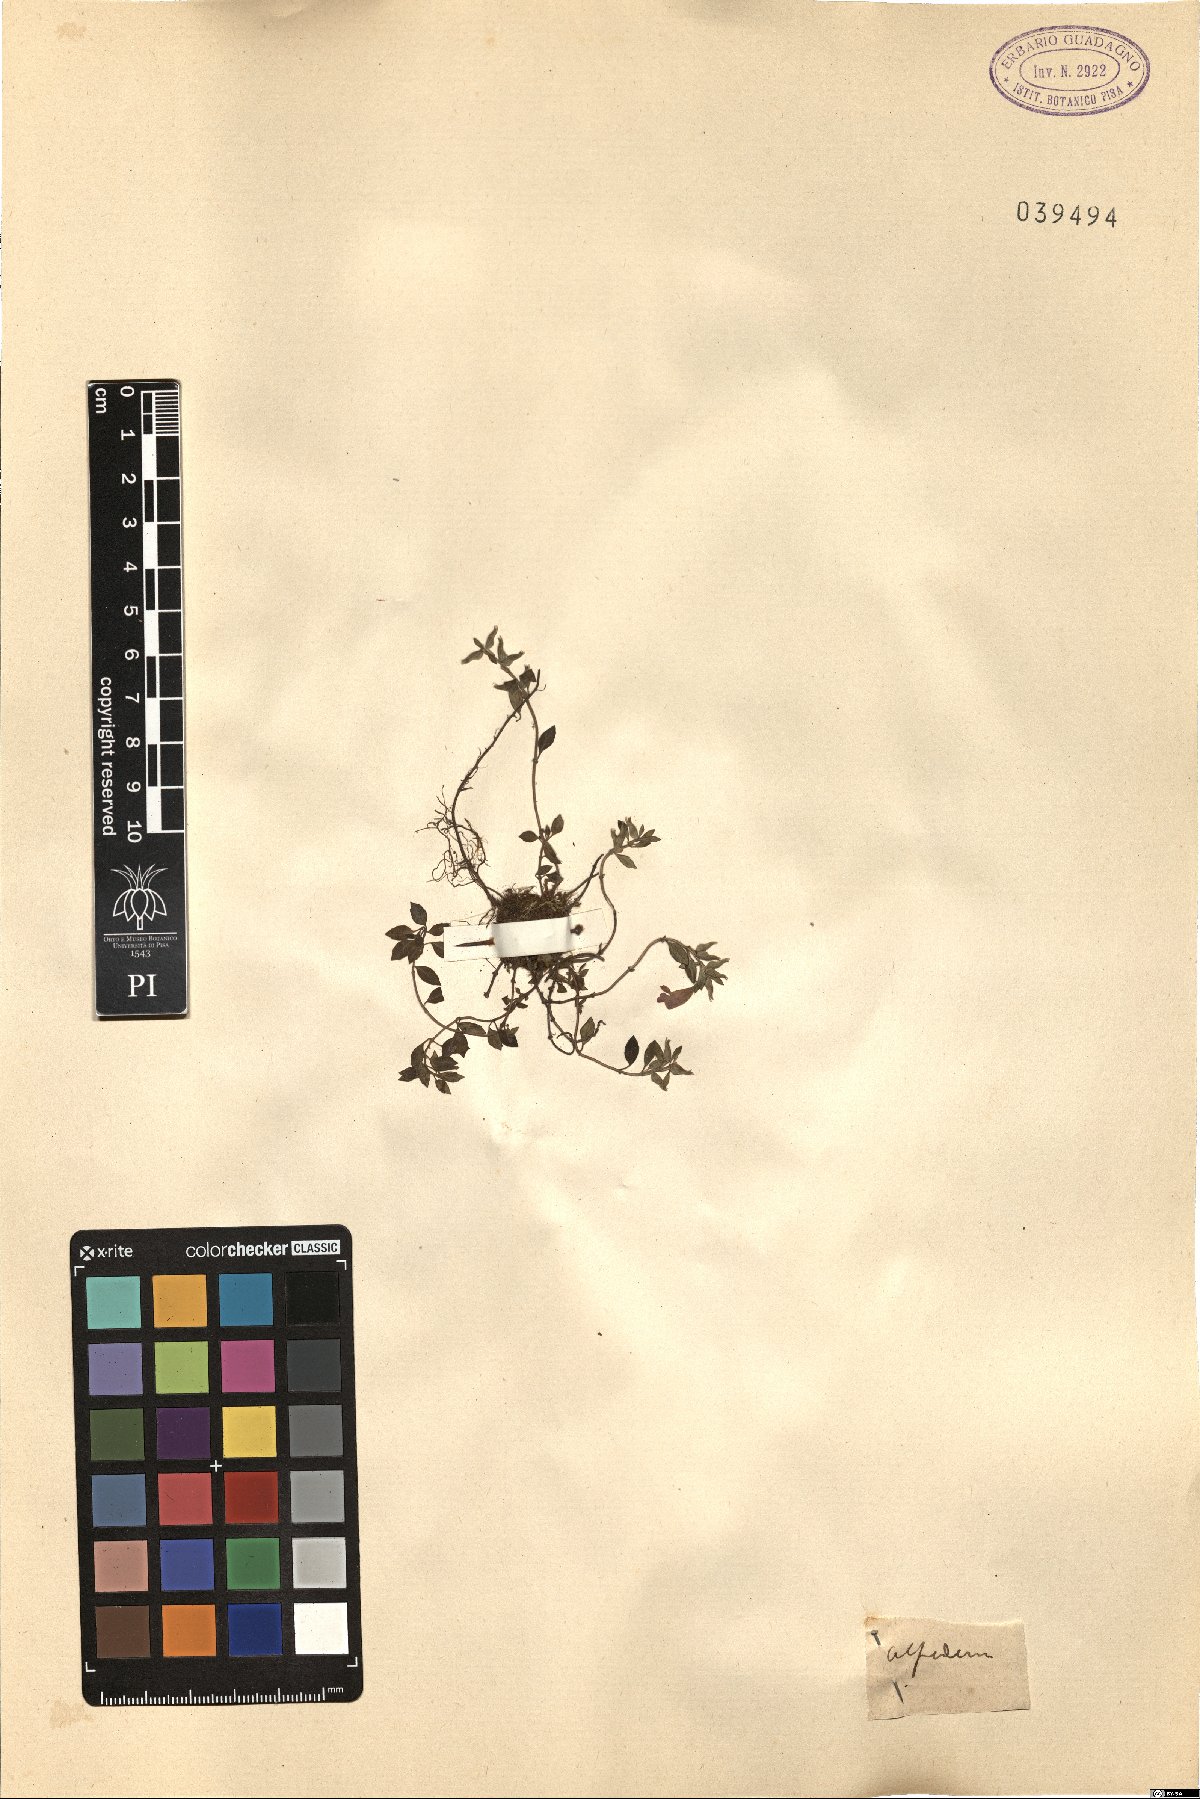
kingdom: Plantae
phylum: Tracheophyta
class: Magnoliopsida
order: Lamiales
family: Lamiaceae
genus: Calamintha
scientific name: Calamintha
